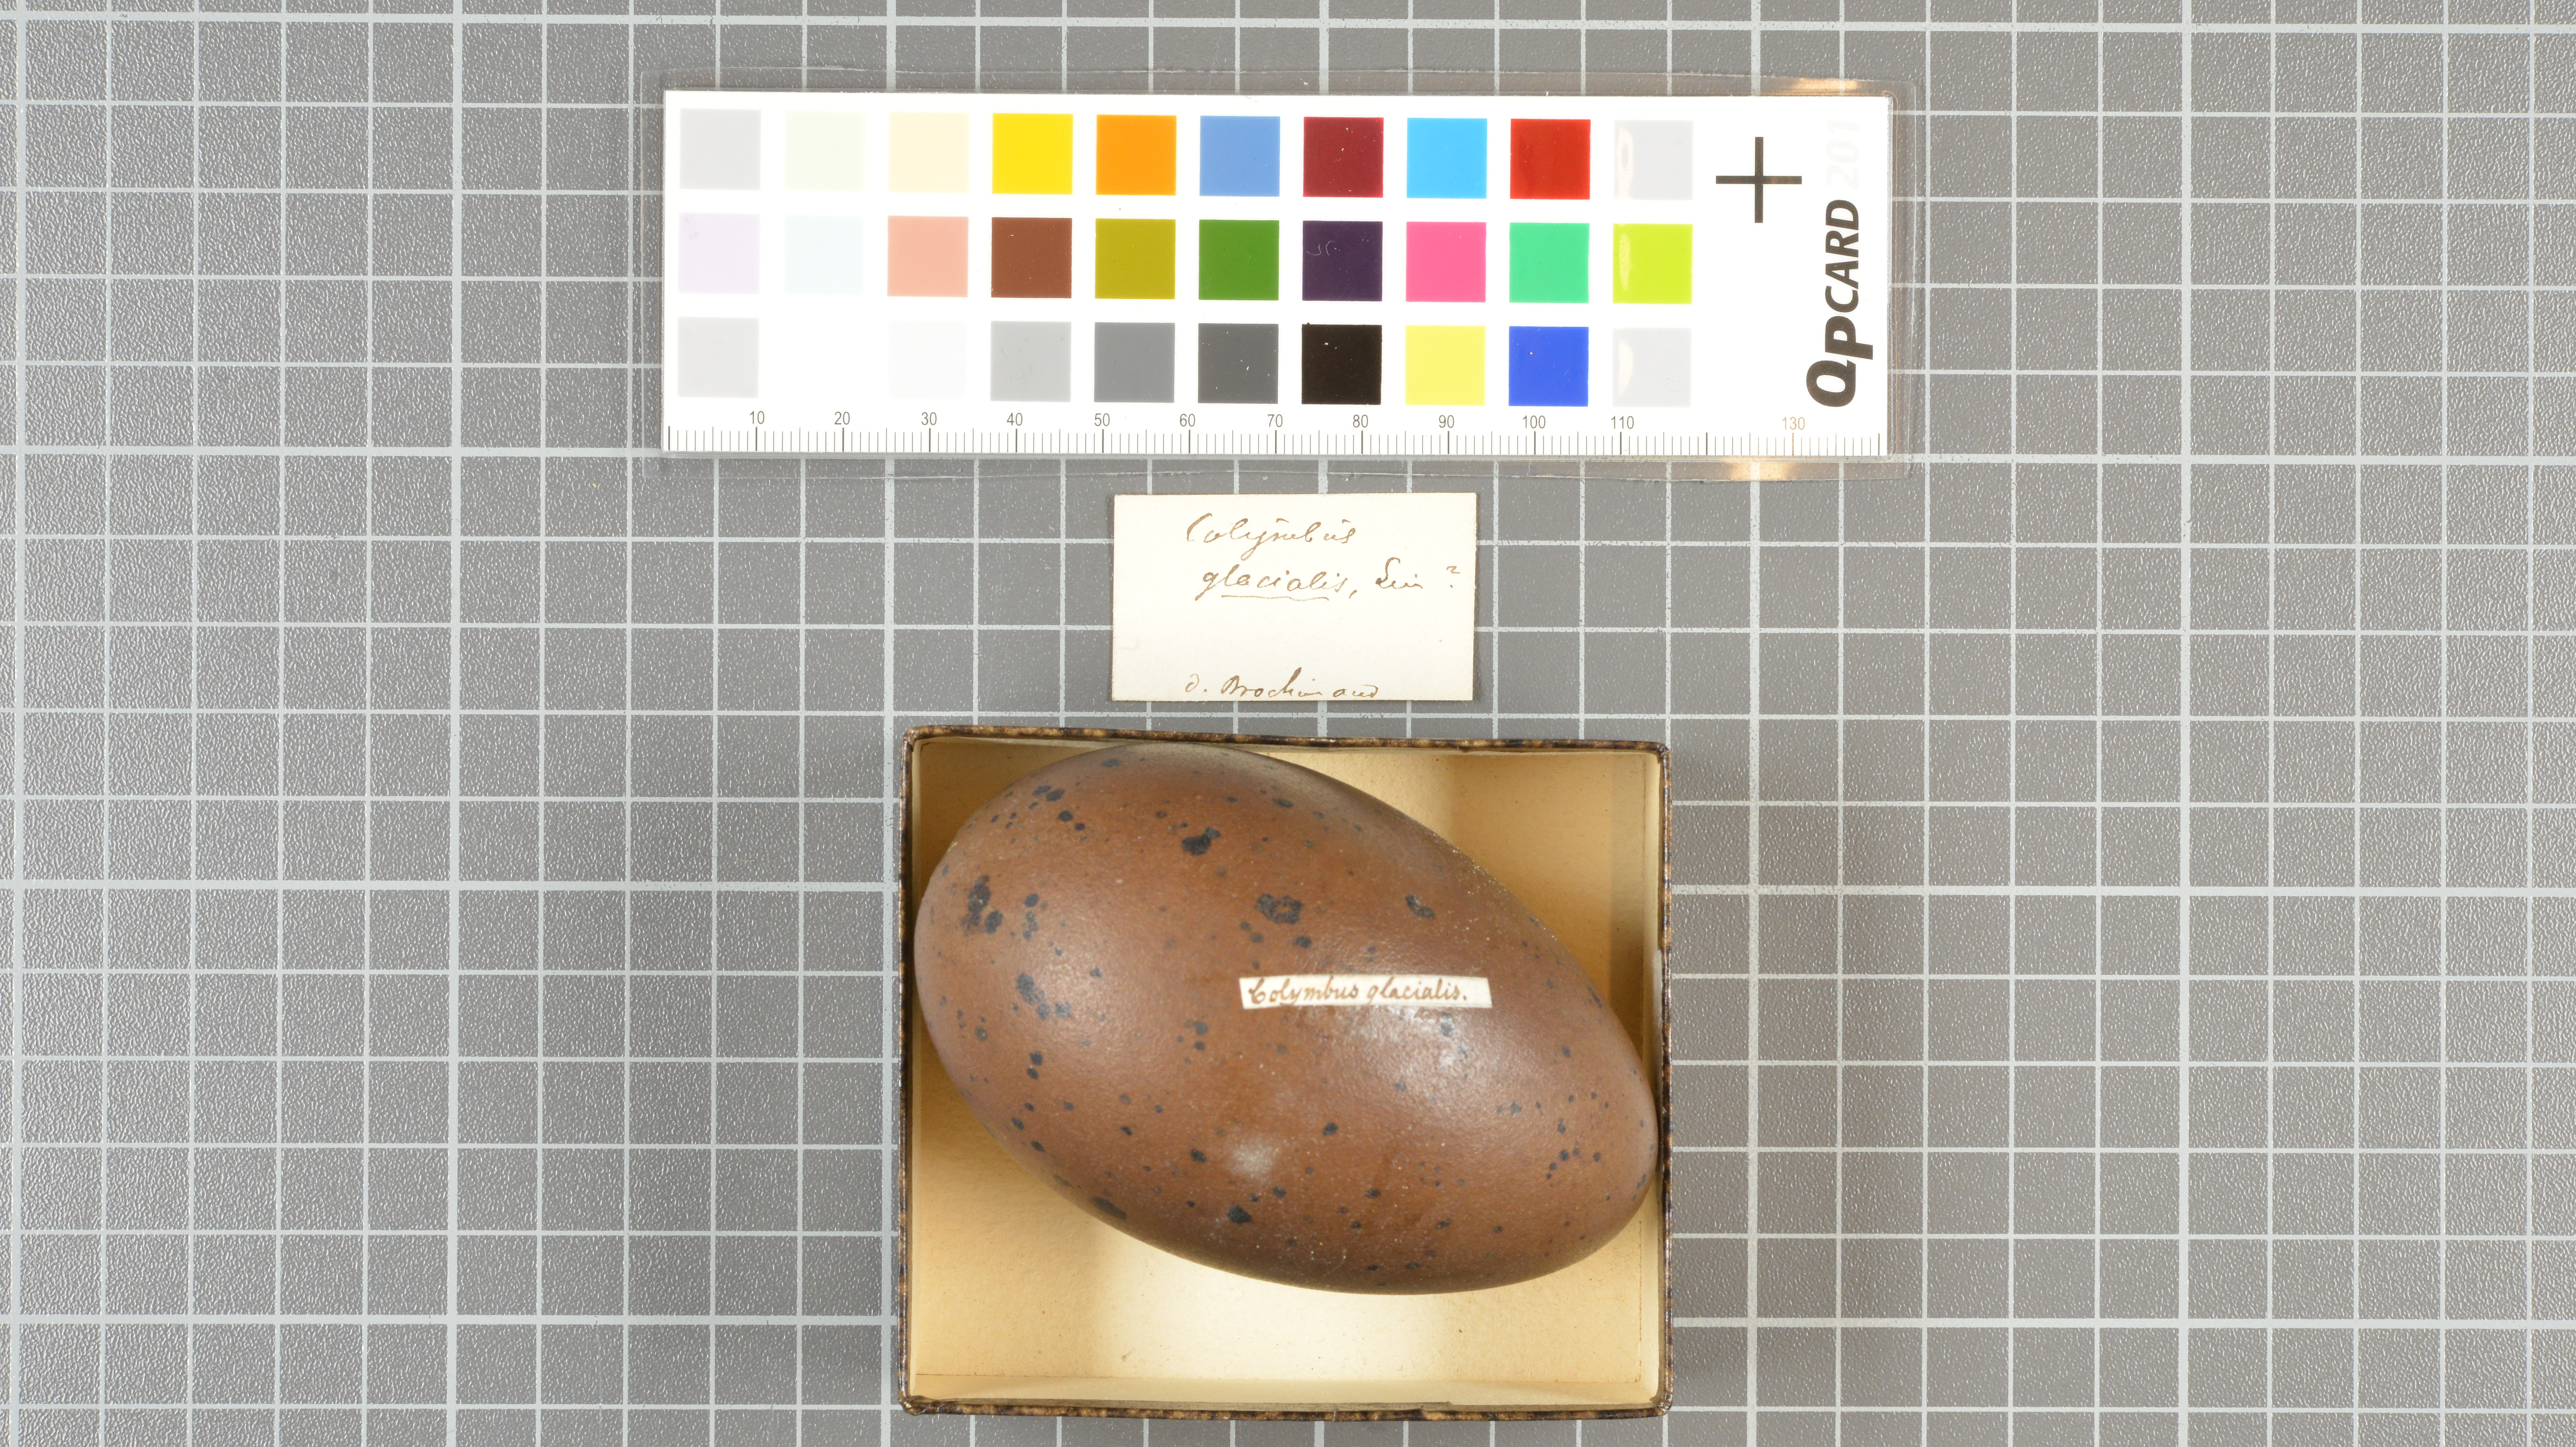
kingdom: Animalia
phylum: Chordata
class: Aves
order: Gaviiformes
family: Gaviidae
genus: Gavia
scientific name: Gavia immer
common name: Common loon
